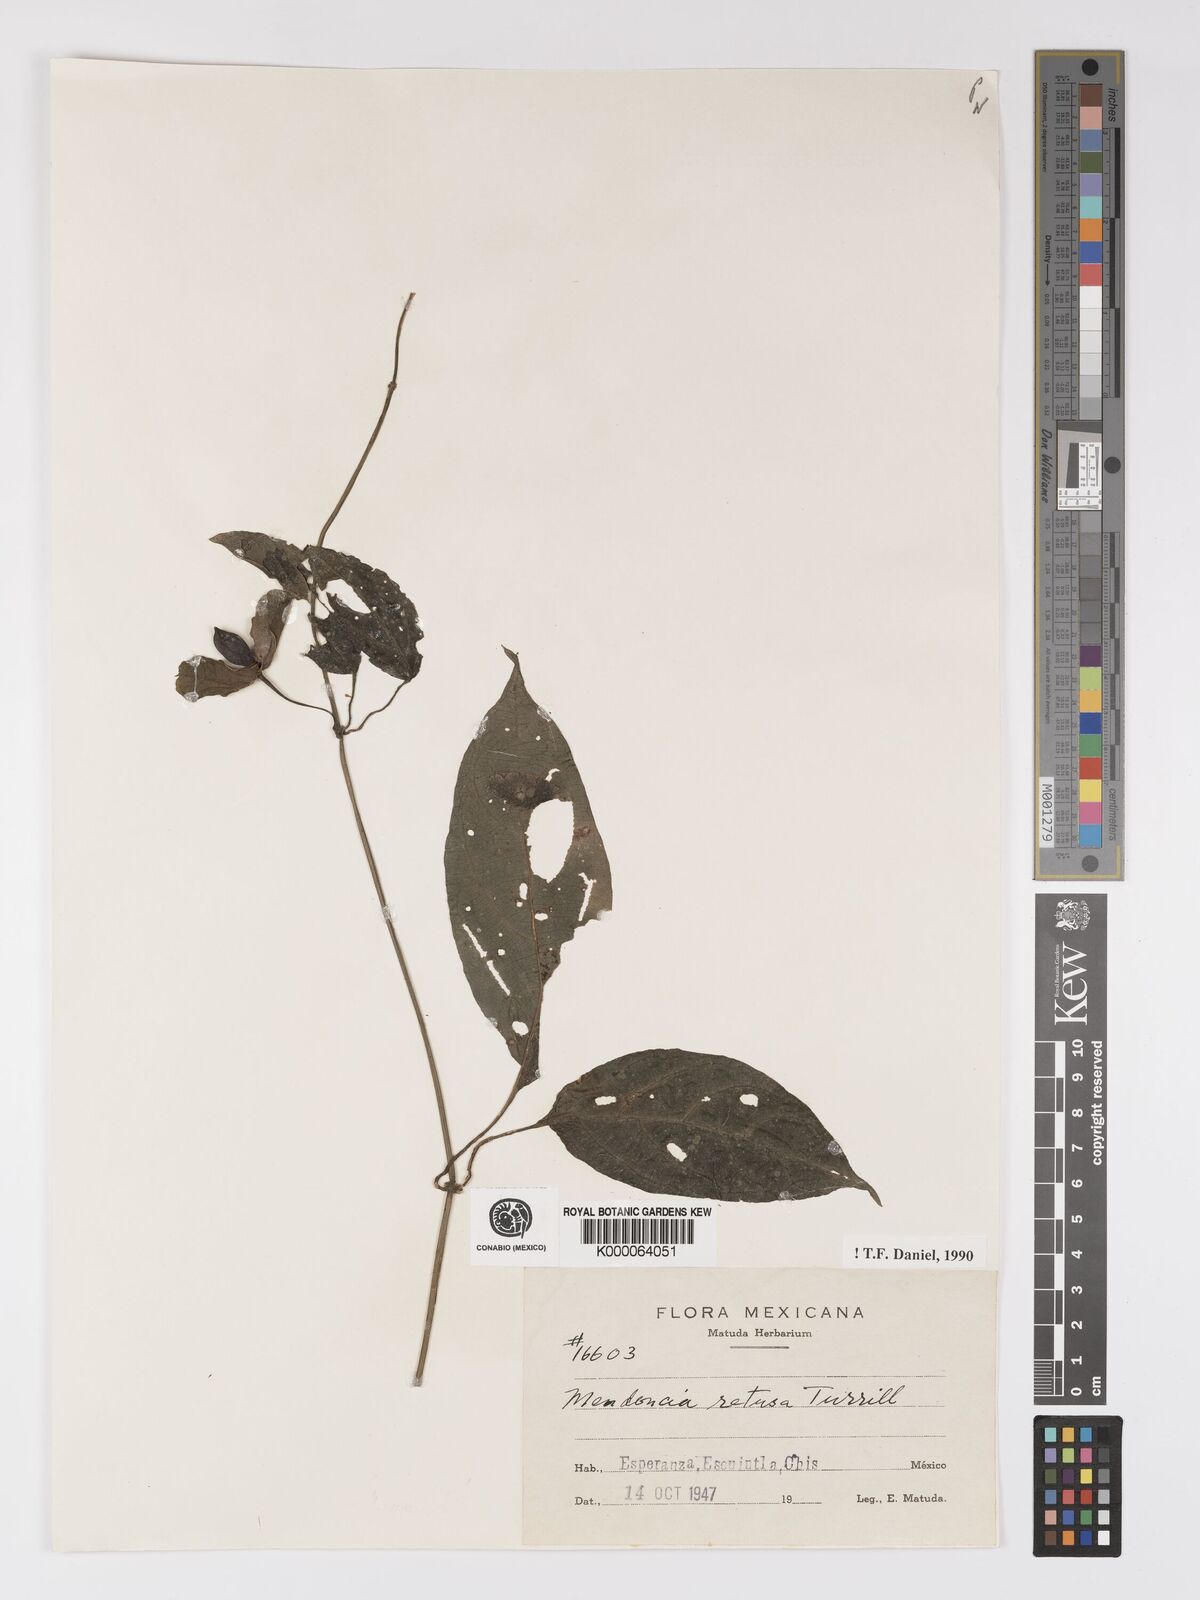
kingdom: Plantae
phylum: Tracheophyta
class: Magnoliopsida
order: Lamiales
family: Acanthaceae
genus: Mendoncia
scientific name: Mendoncia retusa
